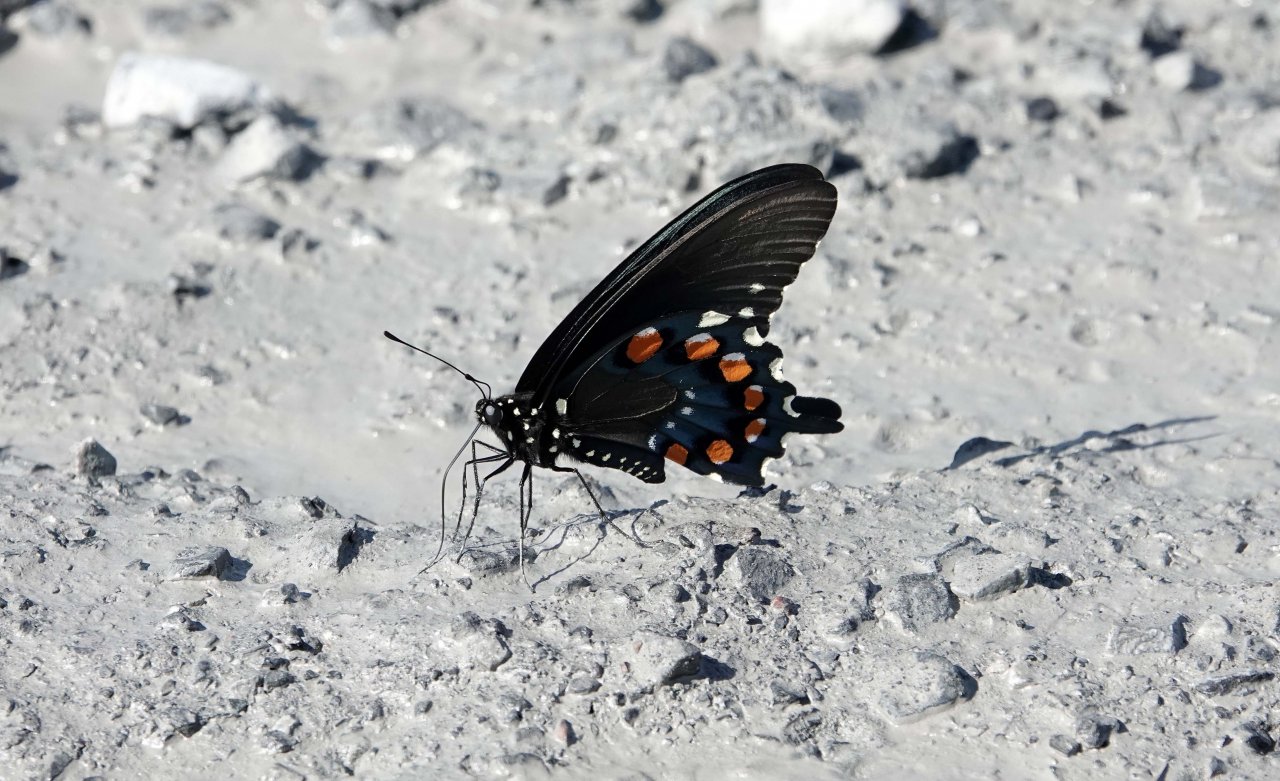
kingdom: Animalia
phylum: Arthropoda
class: Insecta
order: Lepidoptera
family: Papilionidae
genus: Battus
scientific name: Battus philenor
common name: Pipevine Swallowtail
